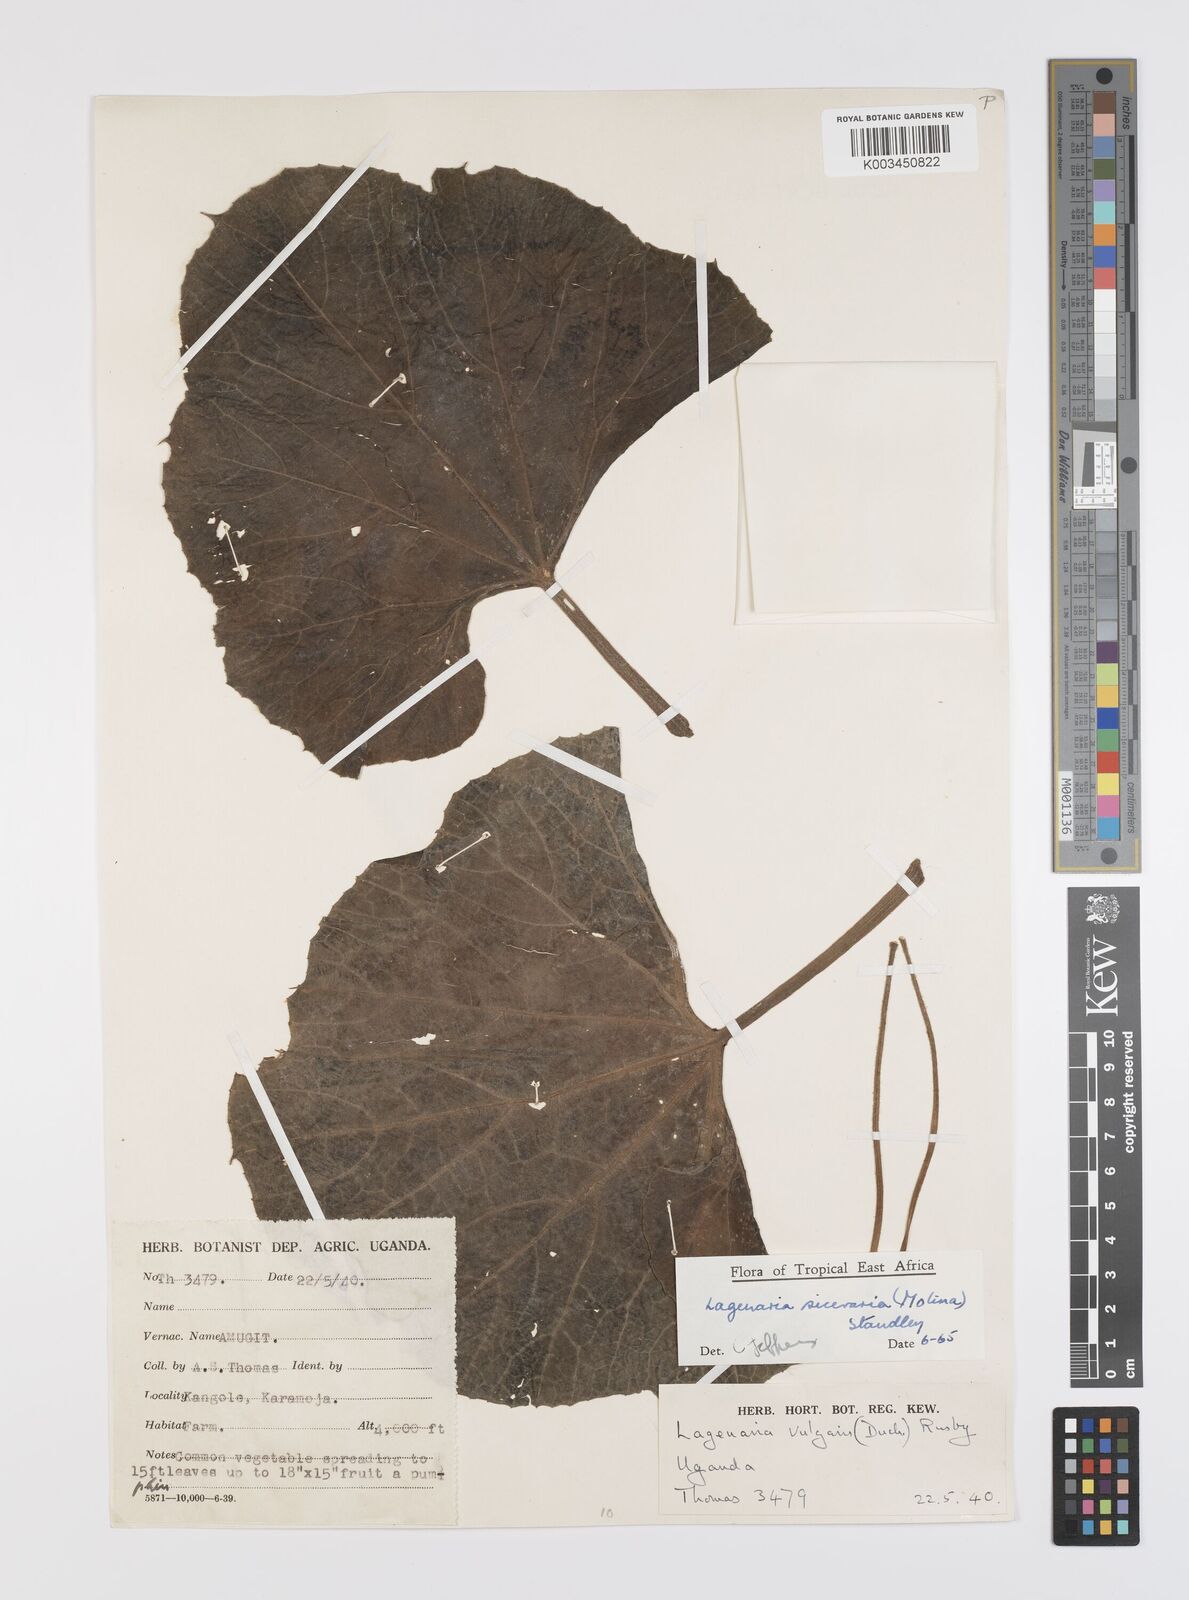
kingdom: Plantae
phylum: Tracheophyta
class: Magnoliopsida
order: Cucurbitales
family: Cucurbitaceae
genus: Lagenaria
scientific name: Lagenaria siceraria
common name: Bottle gourd
